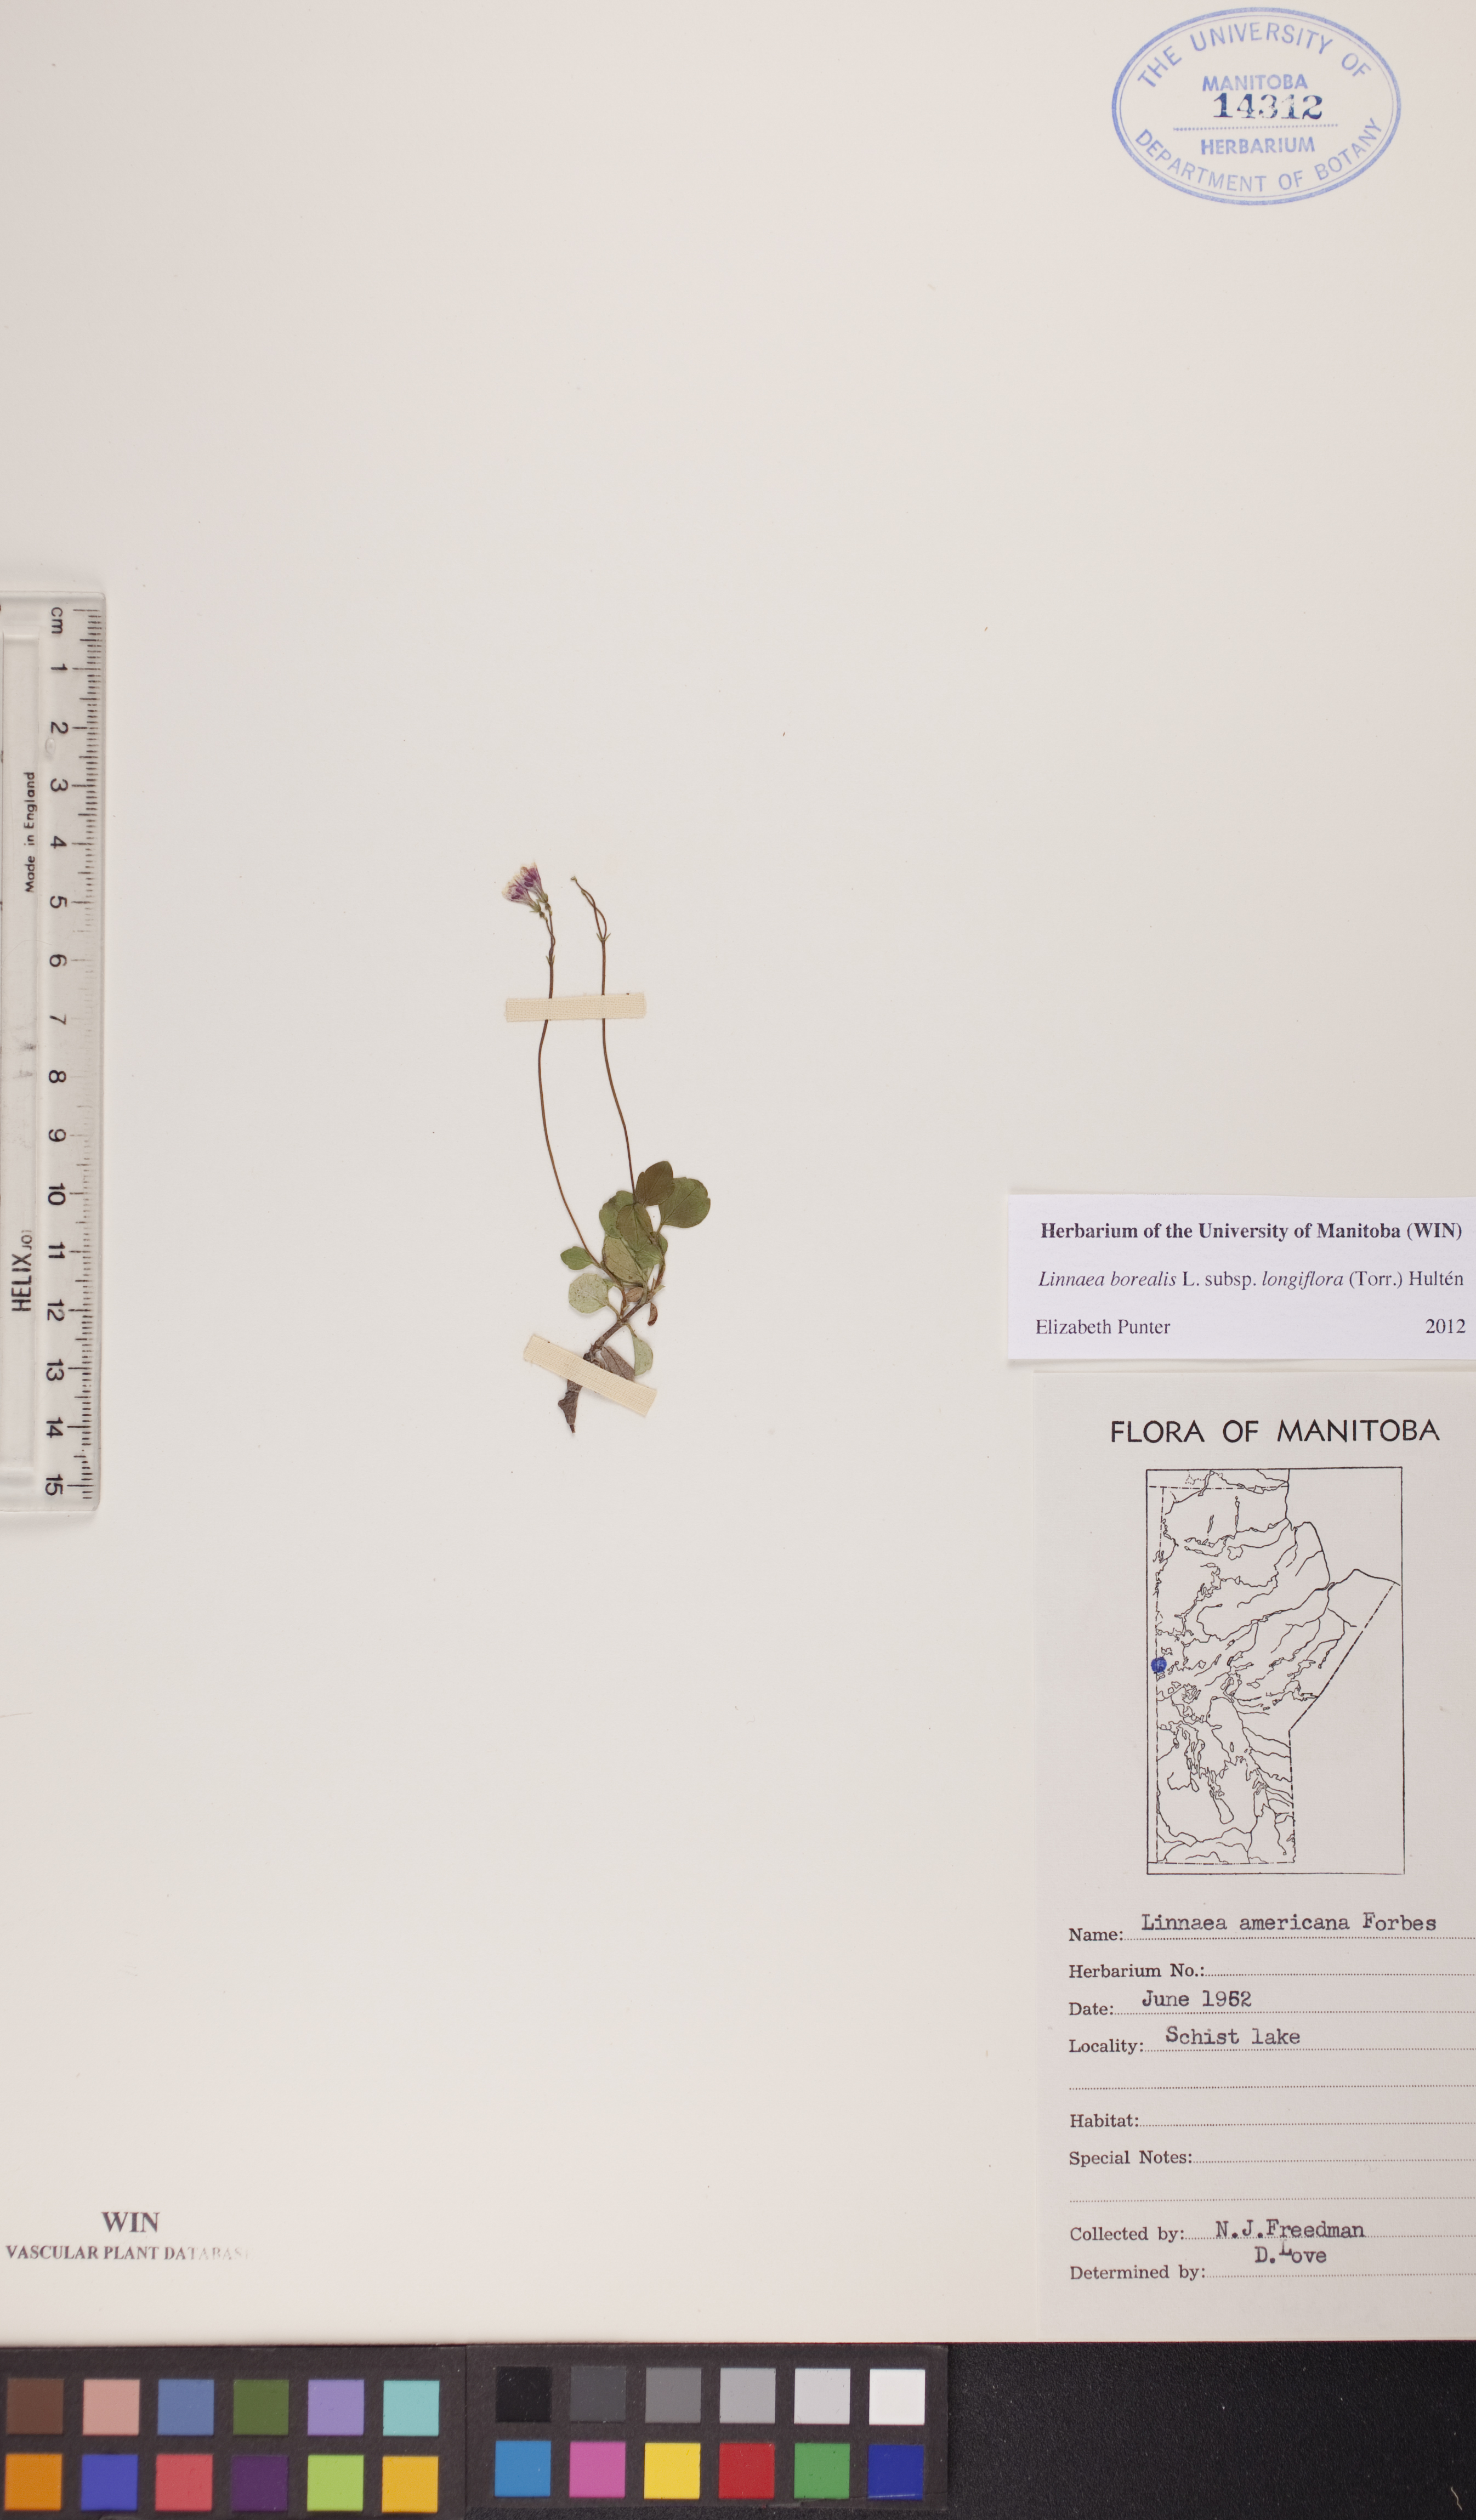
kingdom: Plantae
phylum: Tracheophyta
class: Magnoliopsida
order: Dipsacales
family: Caprifoliaceae
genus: Linnaea
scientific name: Linnaea borealis
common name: Twinflower
